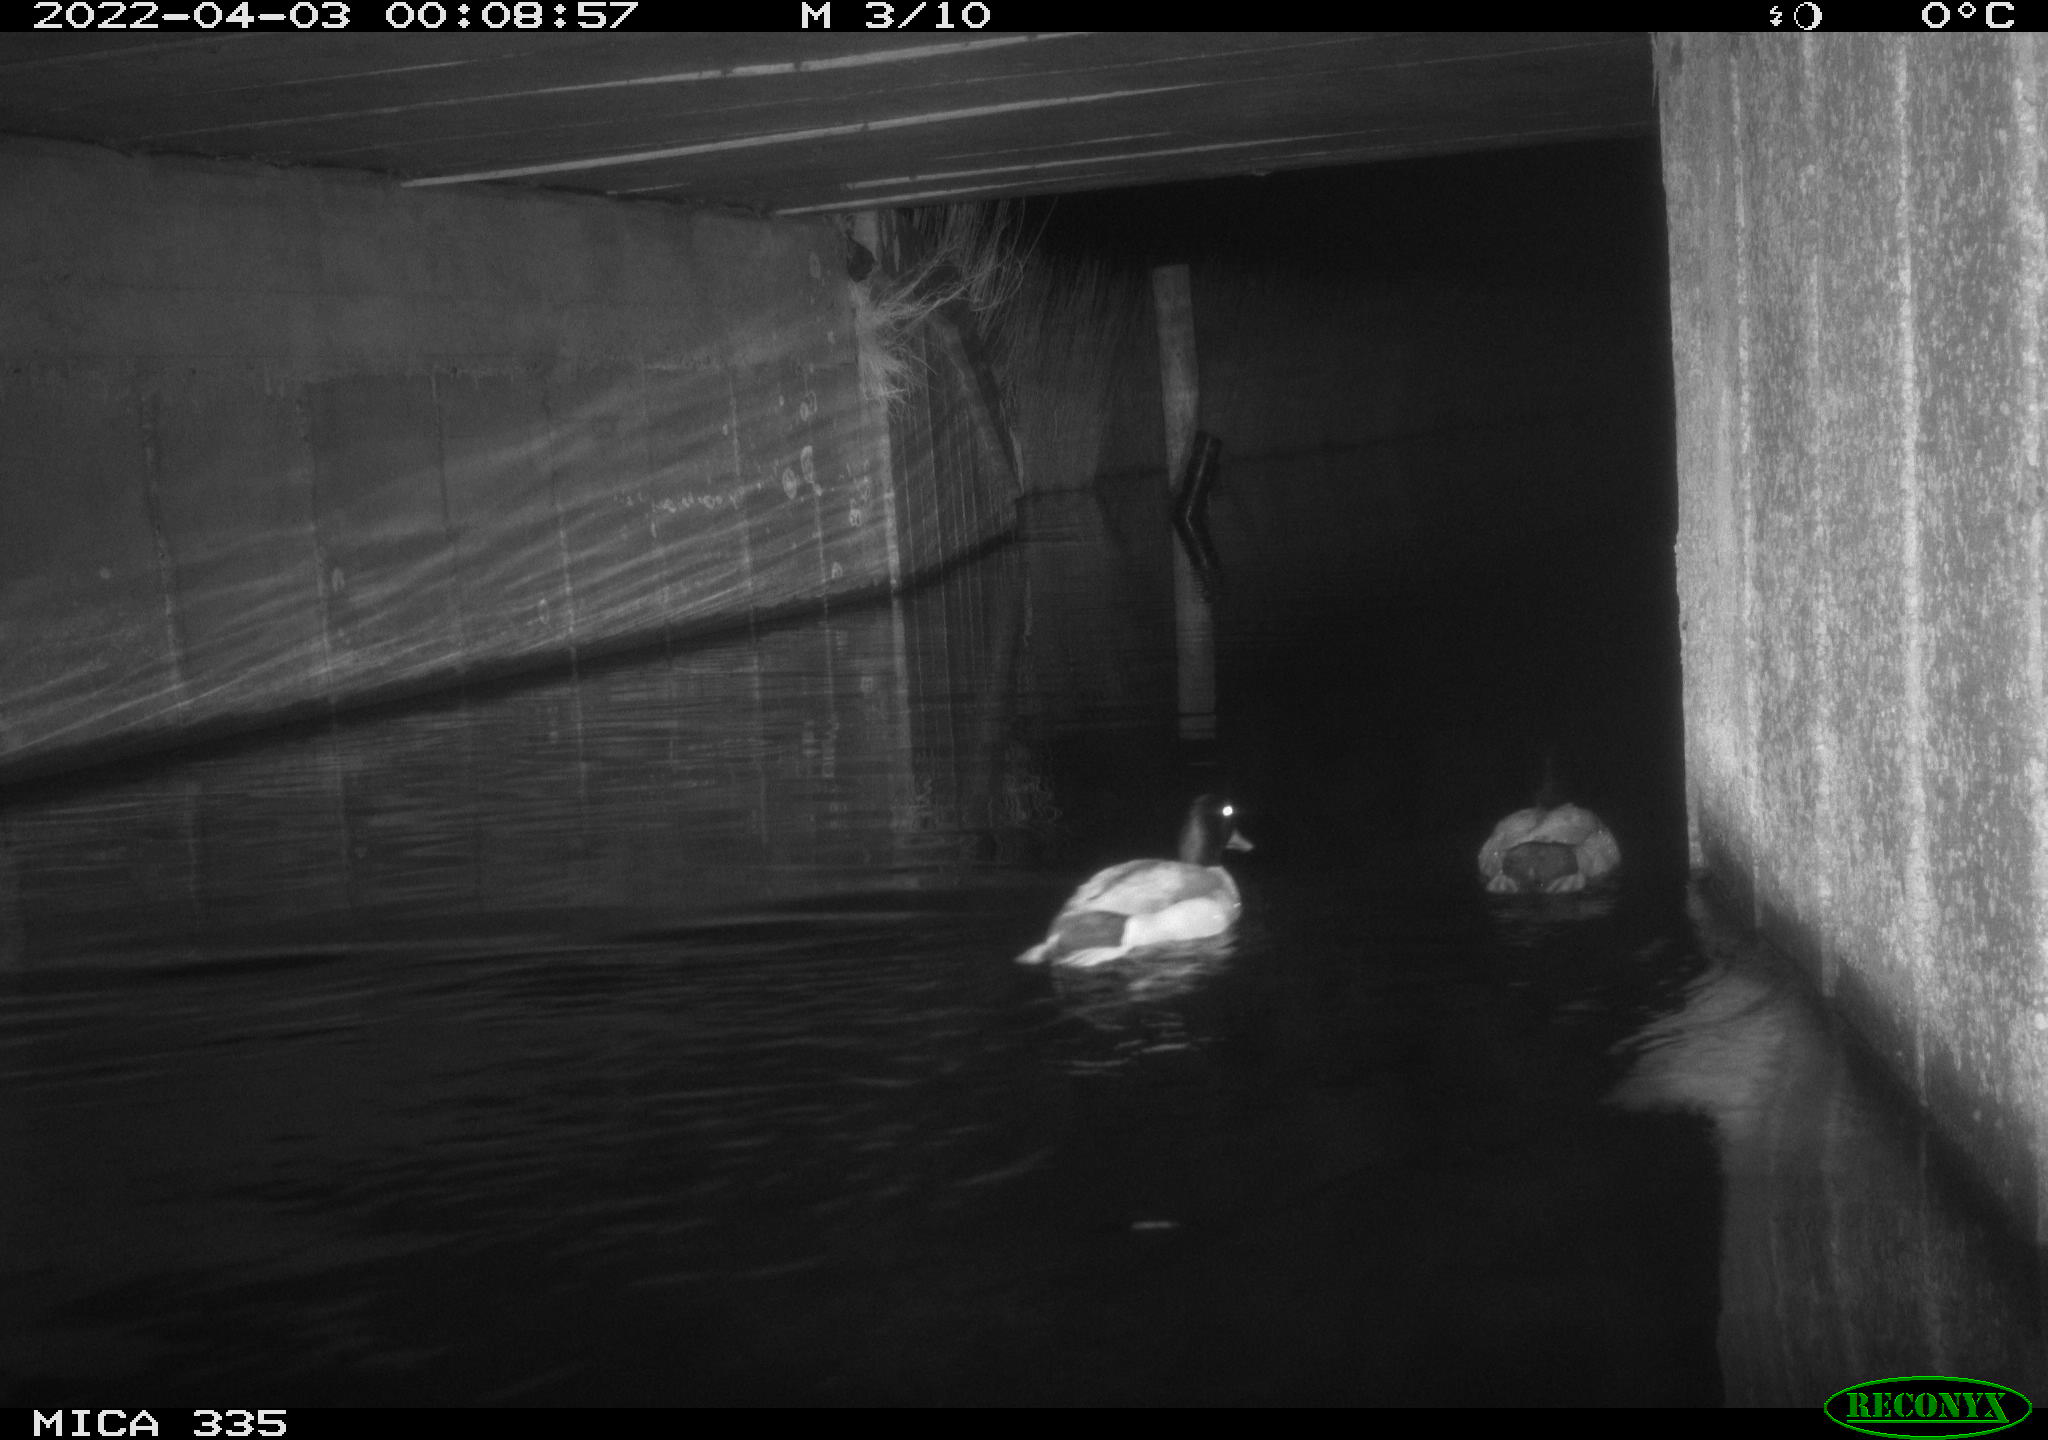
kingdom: Animalia
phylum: Chordata
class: Aves
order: Anseriformes
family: Anatidae
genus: Anas
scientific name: Anas platyrhynchos
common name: Mallard
